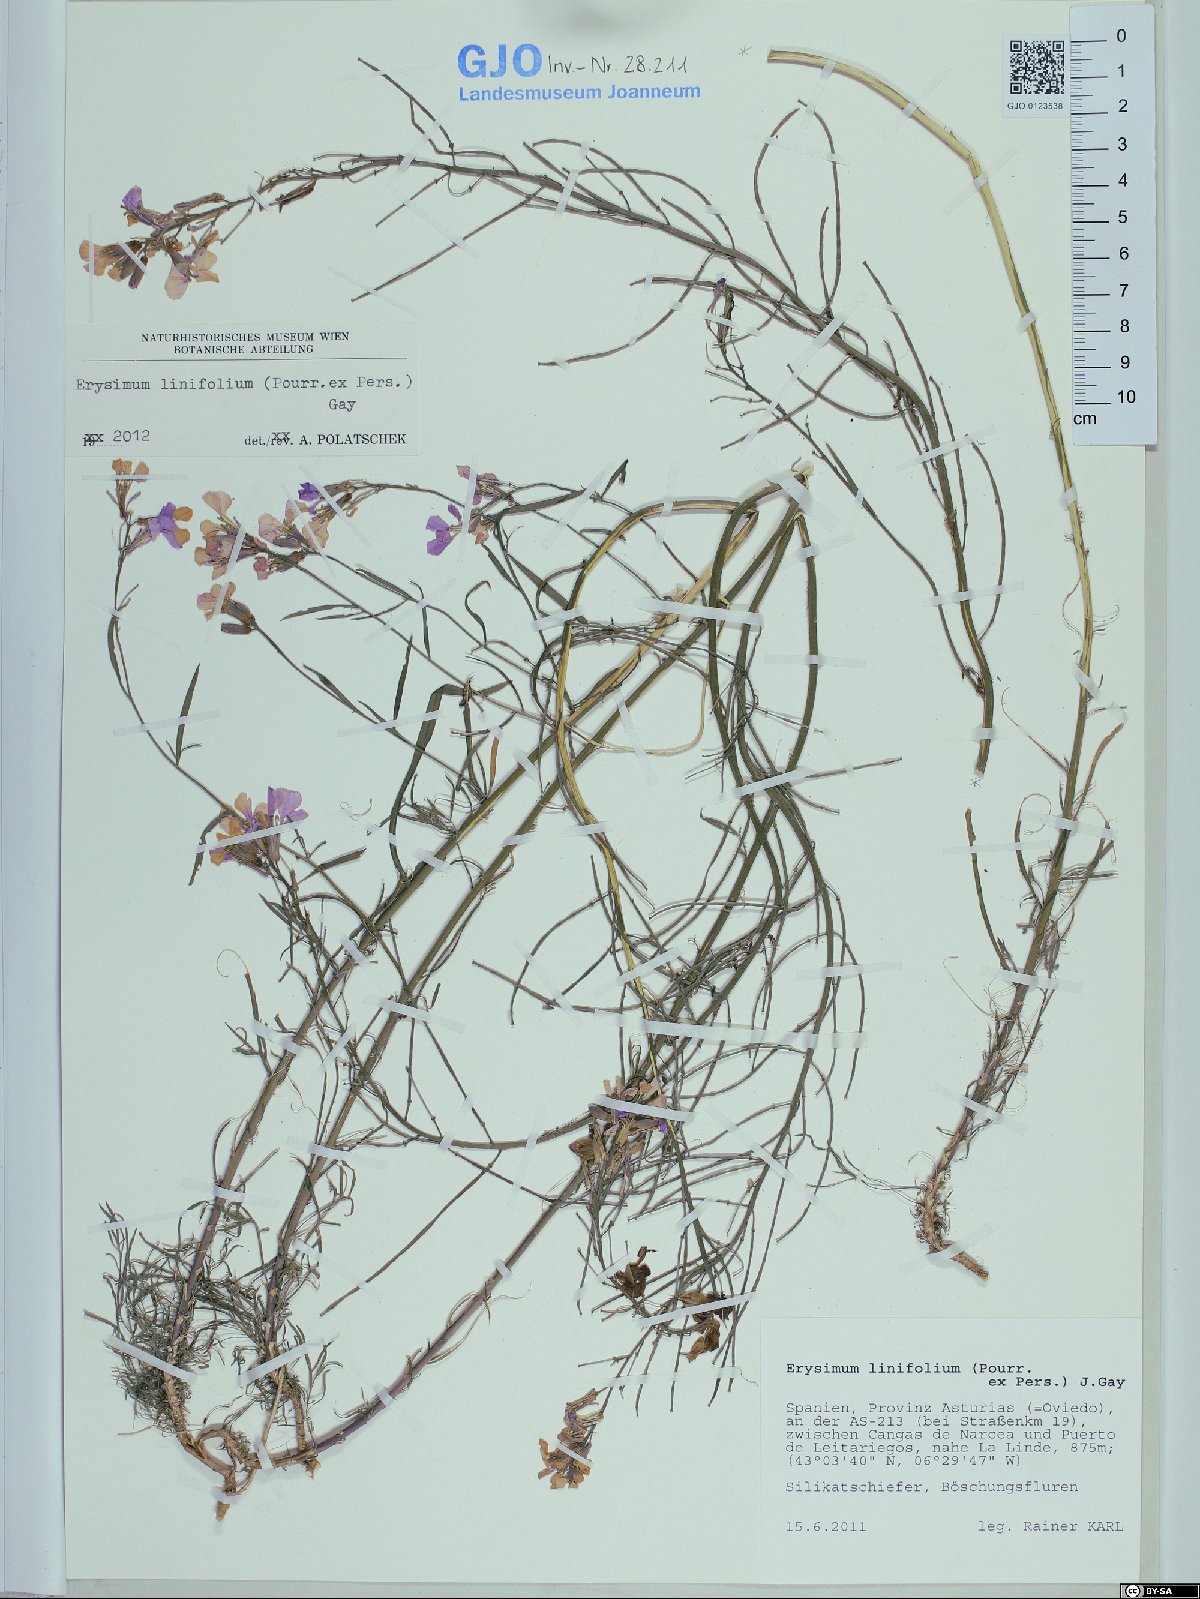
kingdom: Plantae
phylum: Tracheophyta
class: Magnoliopsida
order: Brassicales
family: Brassicaceae
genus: Erysimum
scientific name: Erysimum linifolium
